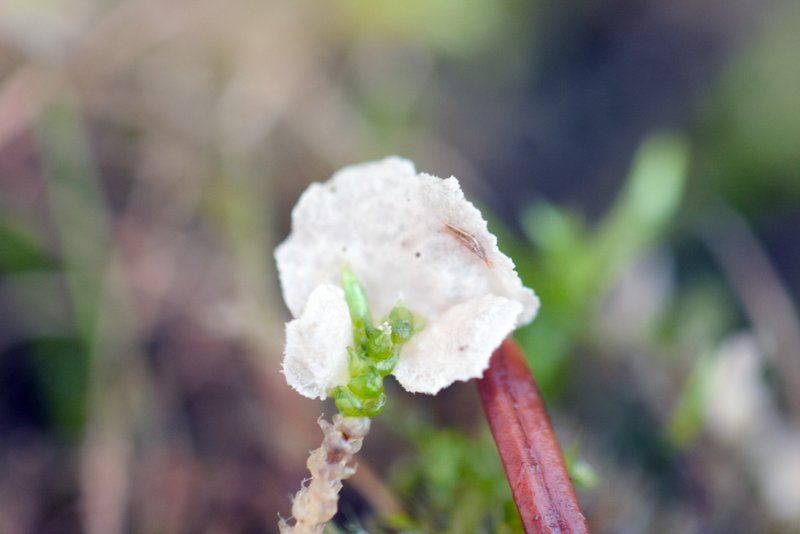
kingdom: Fungi
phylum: Basidiomycota
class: Agaricomycetes
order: Agaricales
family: Hygrophoraceae
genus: Arrhenia
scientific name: Arrhenia retiruga
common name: lille fontænehat
